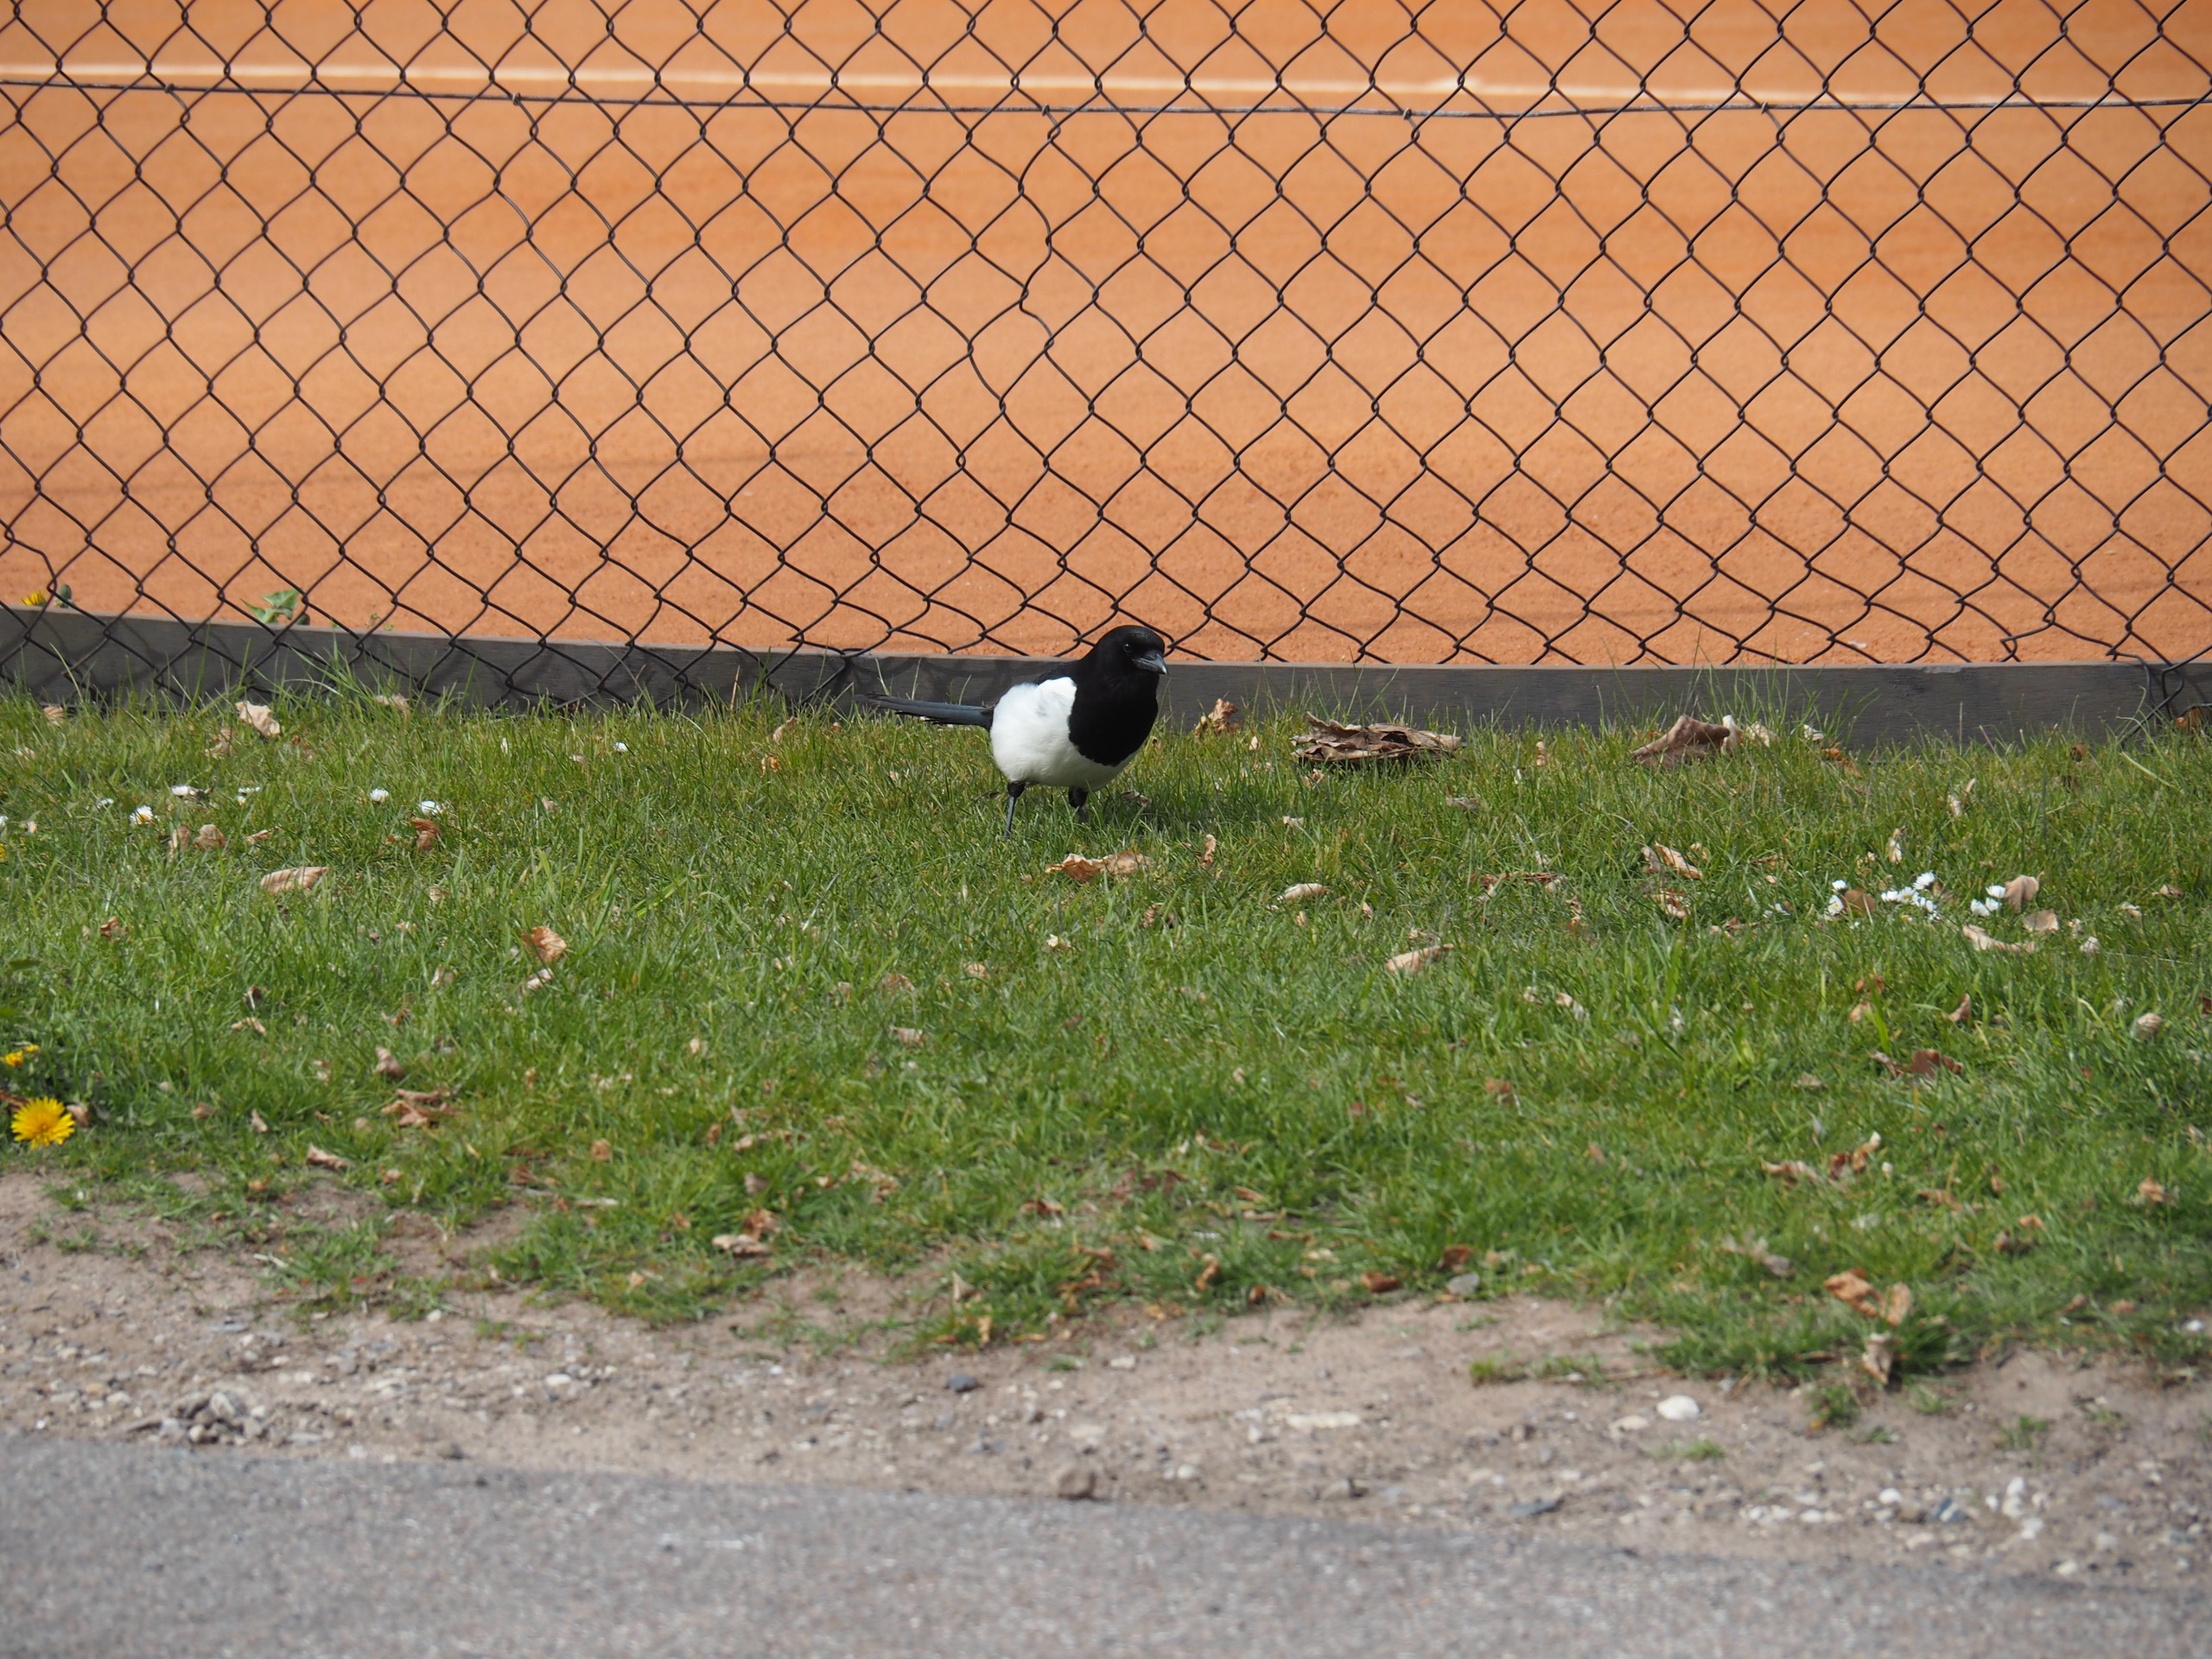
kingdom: Animalia
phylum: Chordata
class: Aves
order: Passeriformes
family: Corvidae
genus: Pica
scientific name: Pica pica
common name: Husskade
